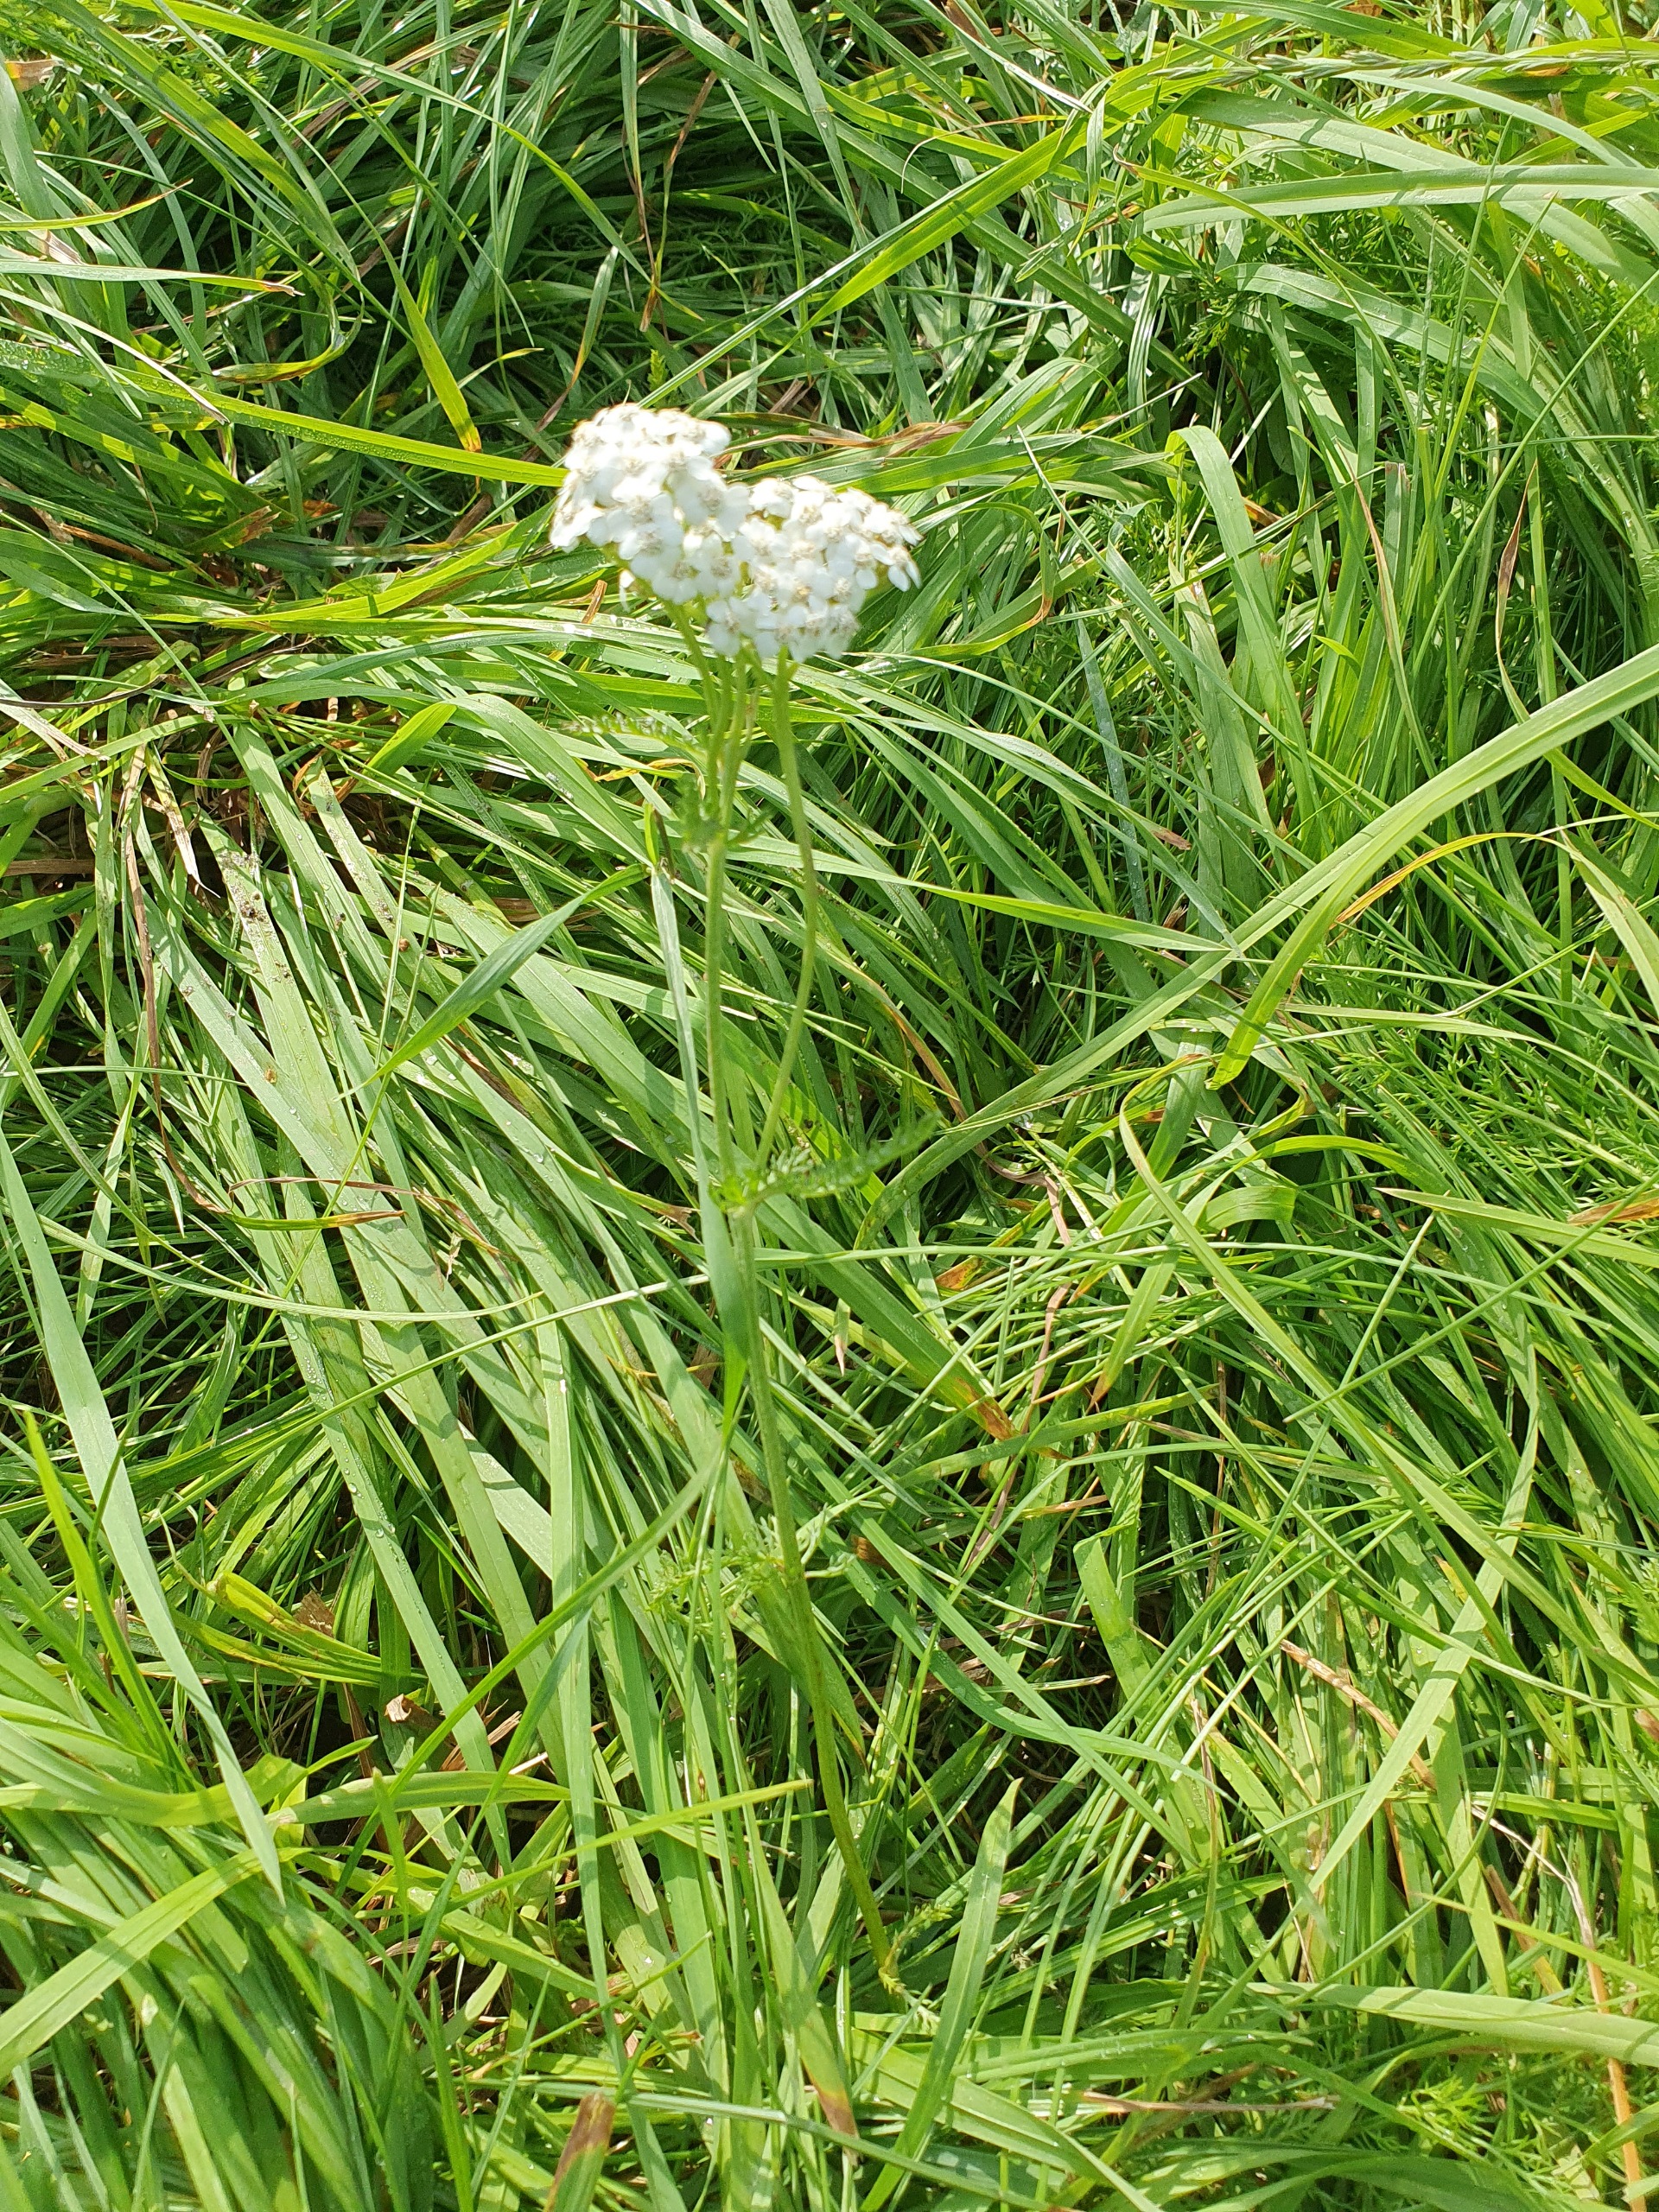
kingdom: Plantae
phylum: Tracheophyta
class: Magnoliopsida
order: Asterales
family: Asteraceae
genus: Achillea
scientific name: Achillea millefolium
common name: Almindelig røllike
